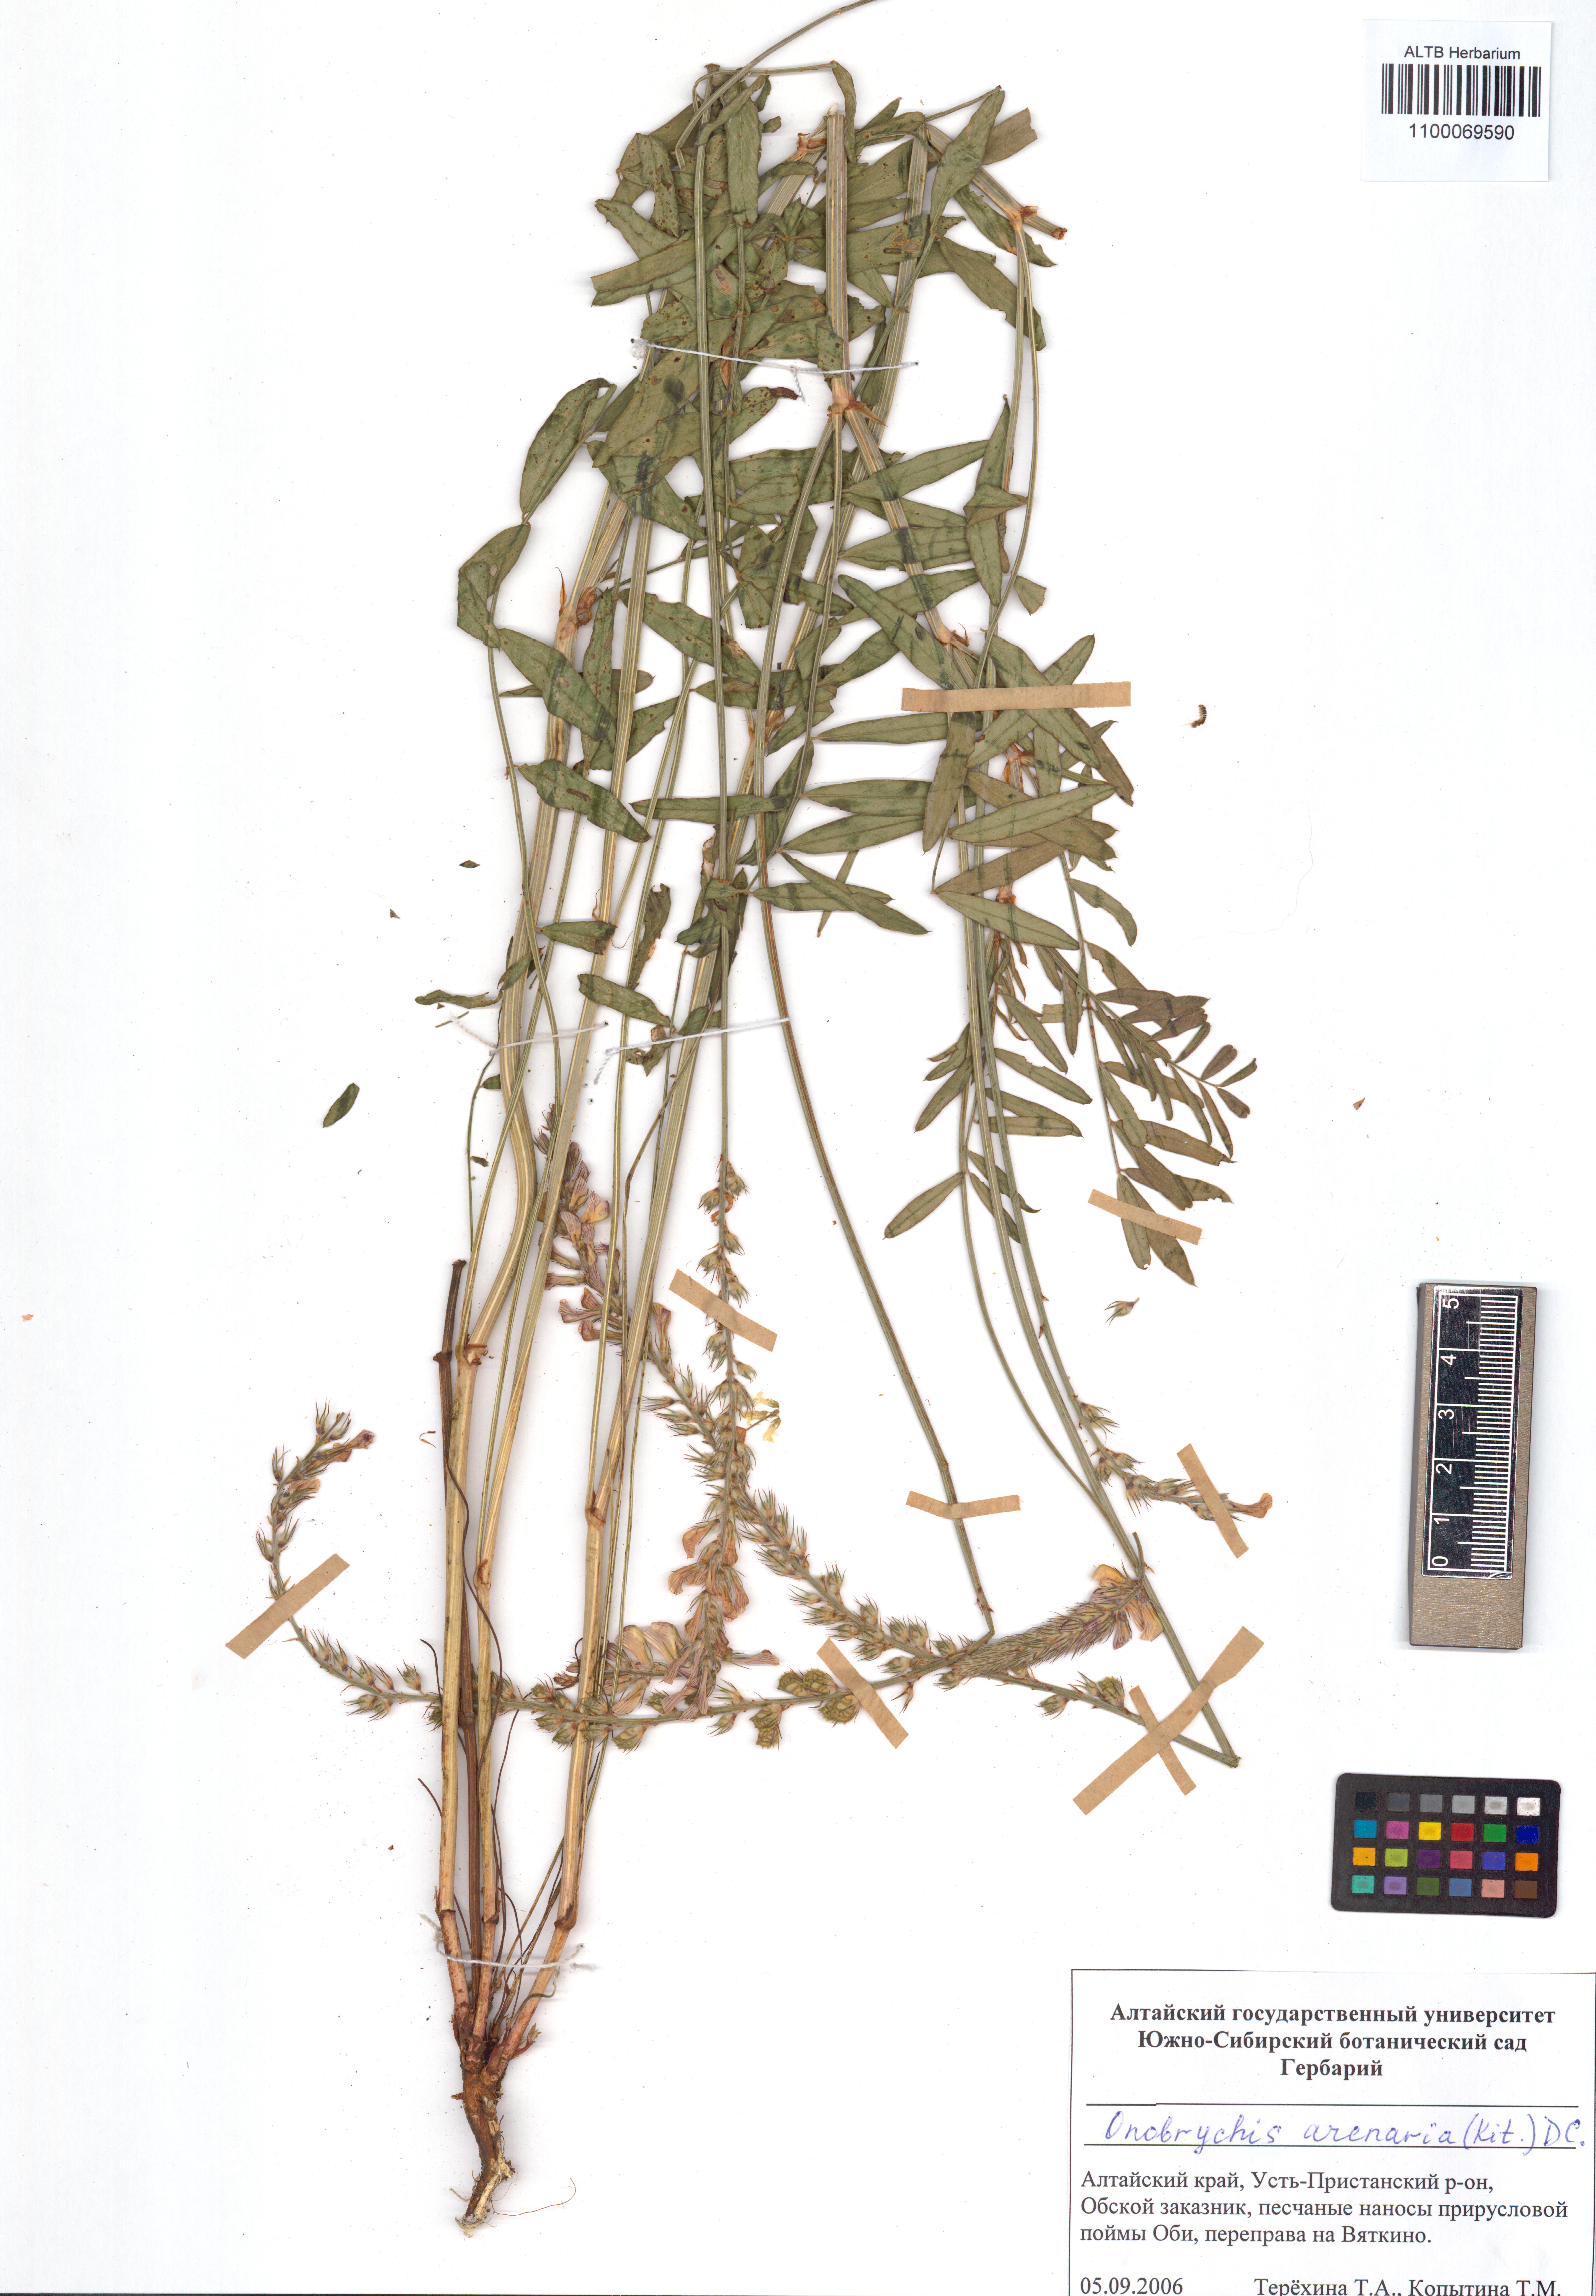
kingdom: Plantae
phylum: Tracheophyta
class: Magnoliopsida
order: Fabales
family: Fabaceae
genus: Onobrychis
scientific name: Onobrychis arenaria
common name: Sand esparcet
